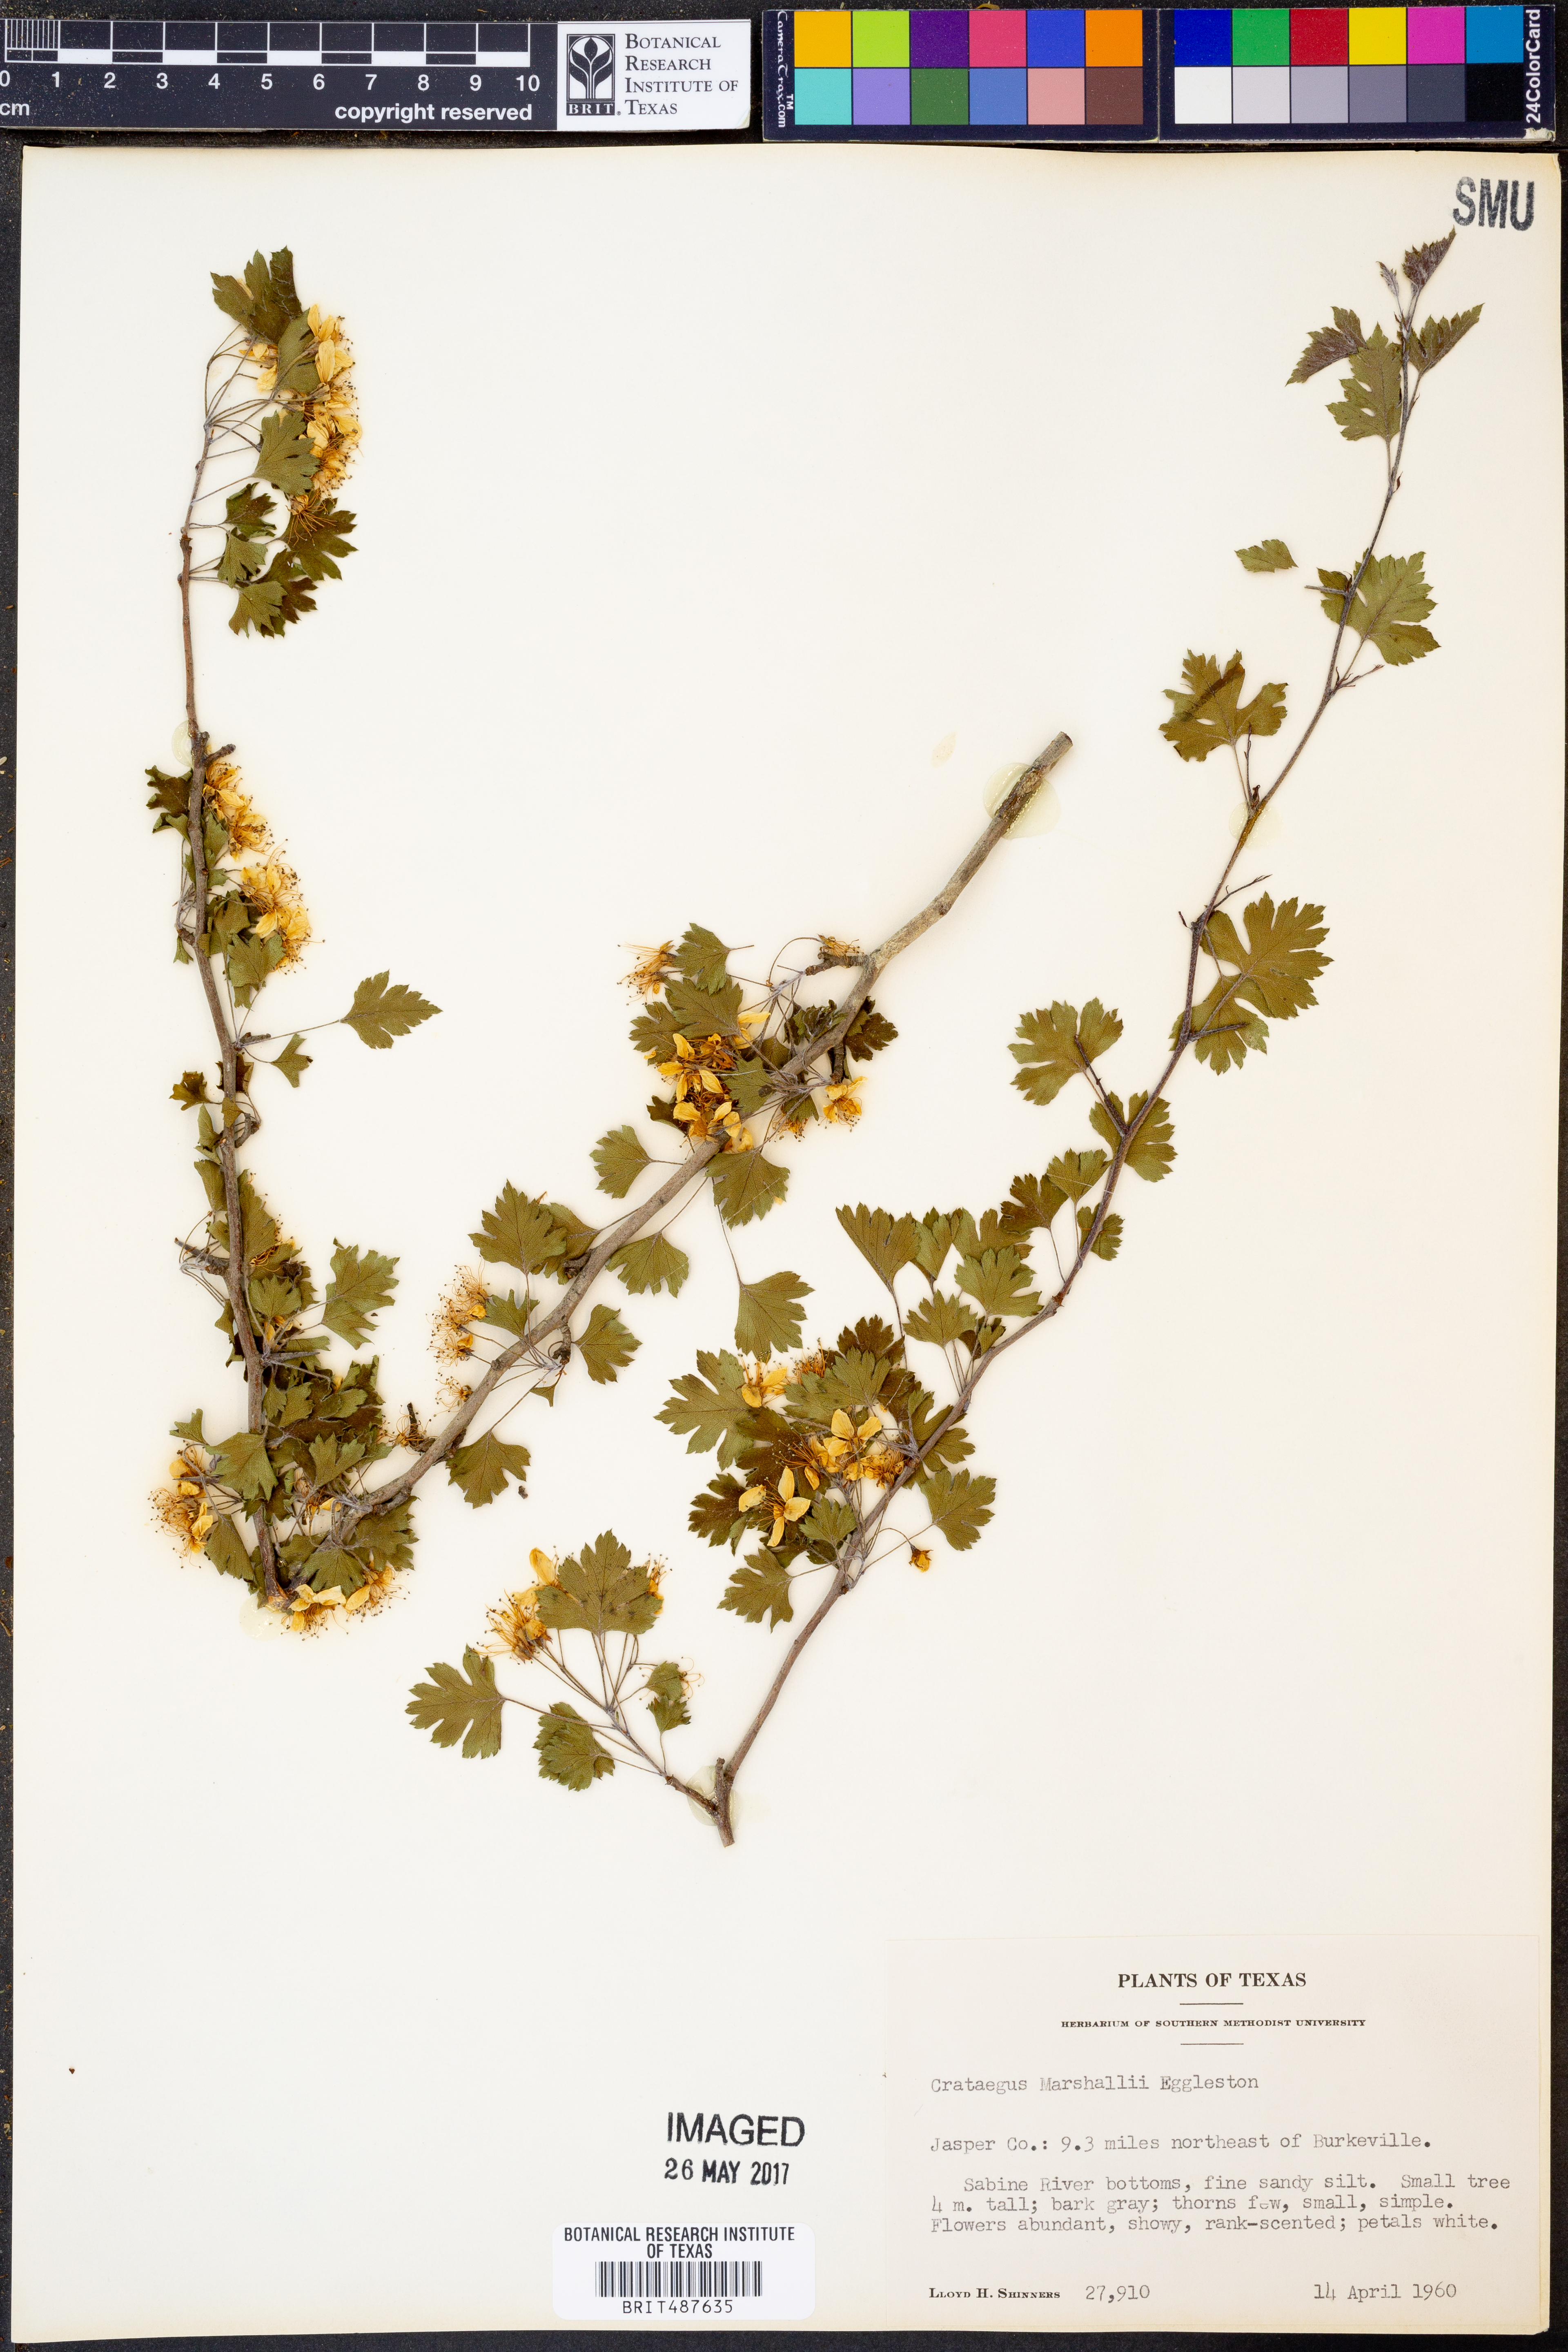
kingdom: Plantae
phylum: Tracheophyta
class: Magnoliopsida
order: Rosales
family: Rosaceae
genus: Crataegus
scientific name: Crataegus marshallii
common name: Parsley-hawthorn
